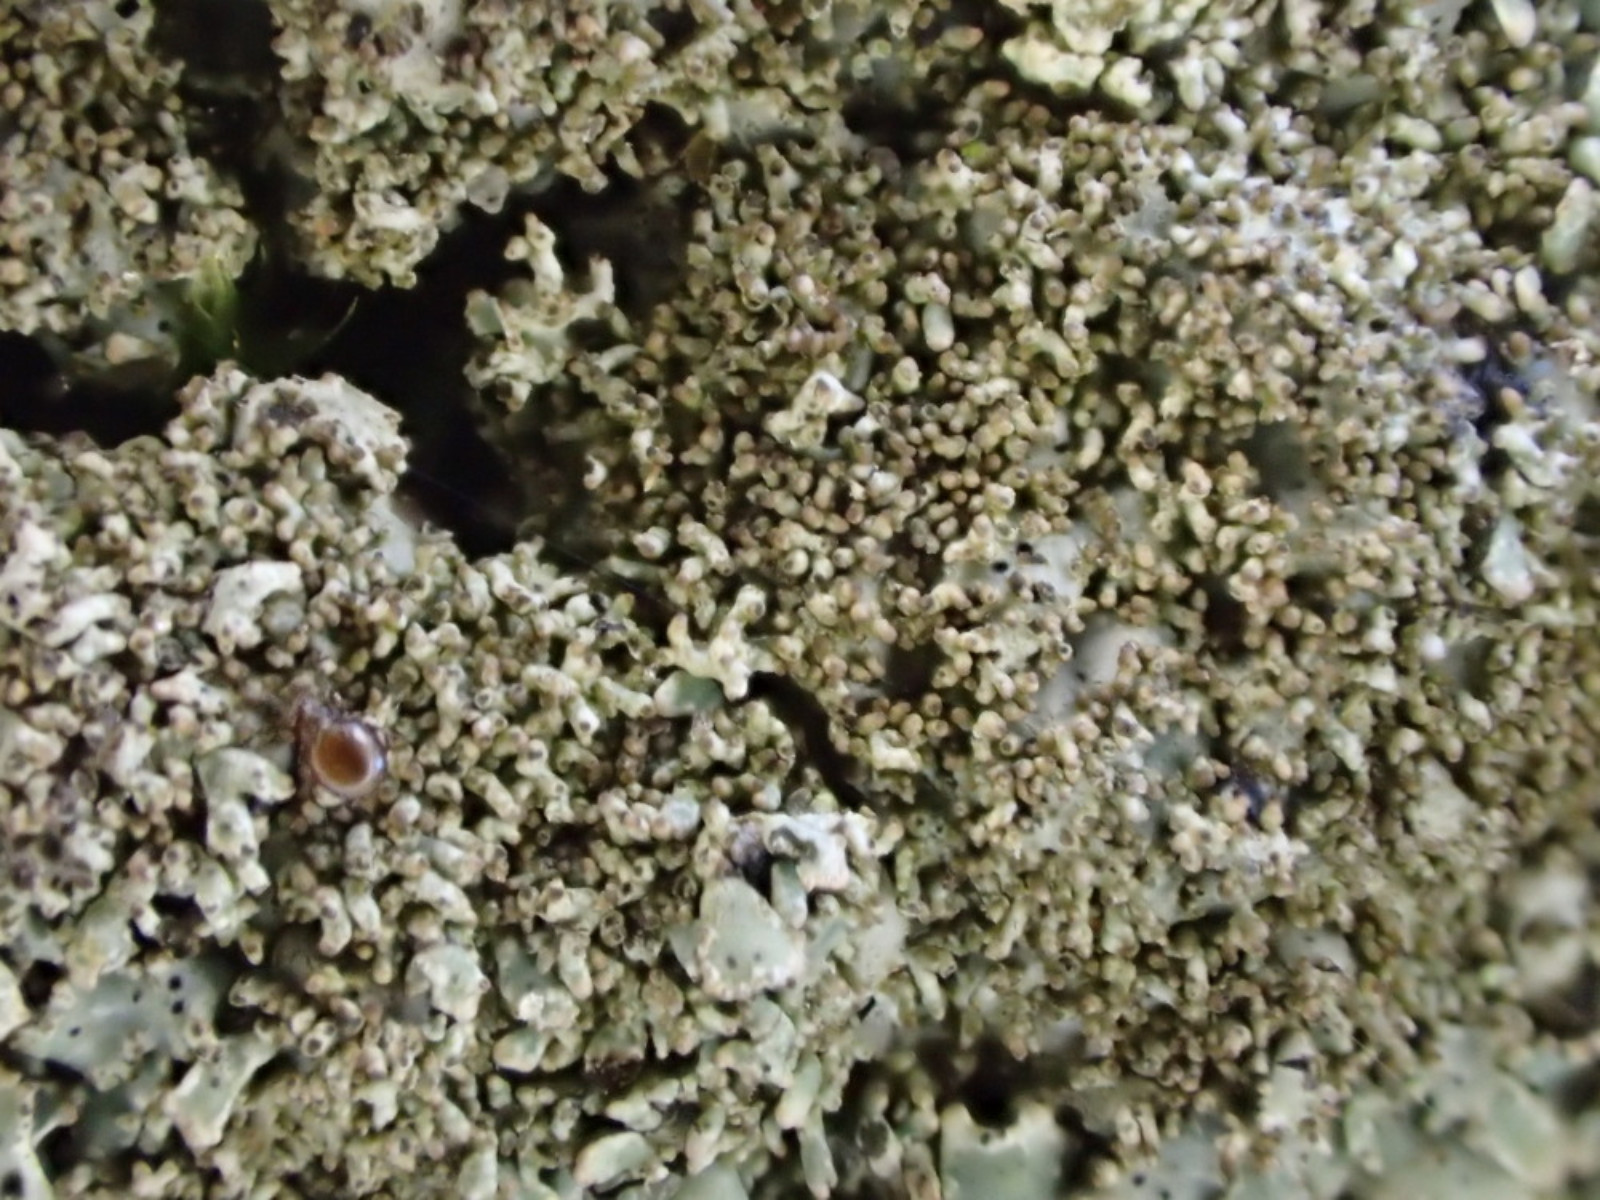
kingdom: Fungi
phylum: Ascomycota
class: Lecanoromycetes
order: Lecanorales
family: Parmeliaceae
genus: Parmelia
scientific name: Parmelia saxatilis
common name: farve-skållav
